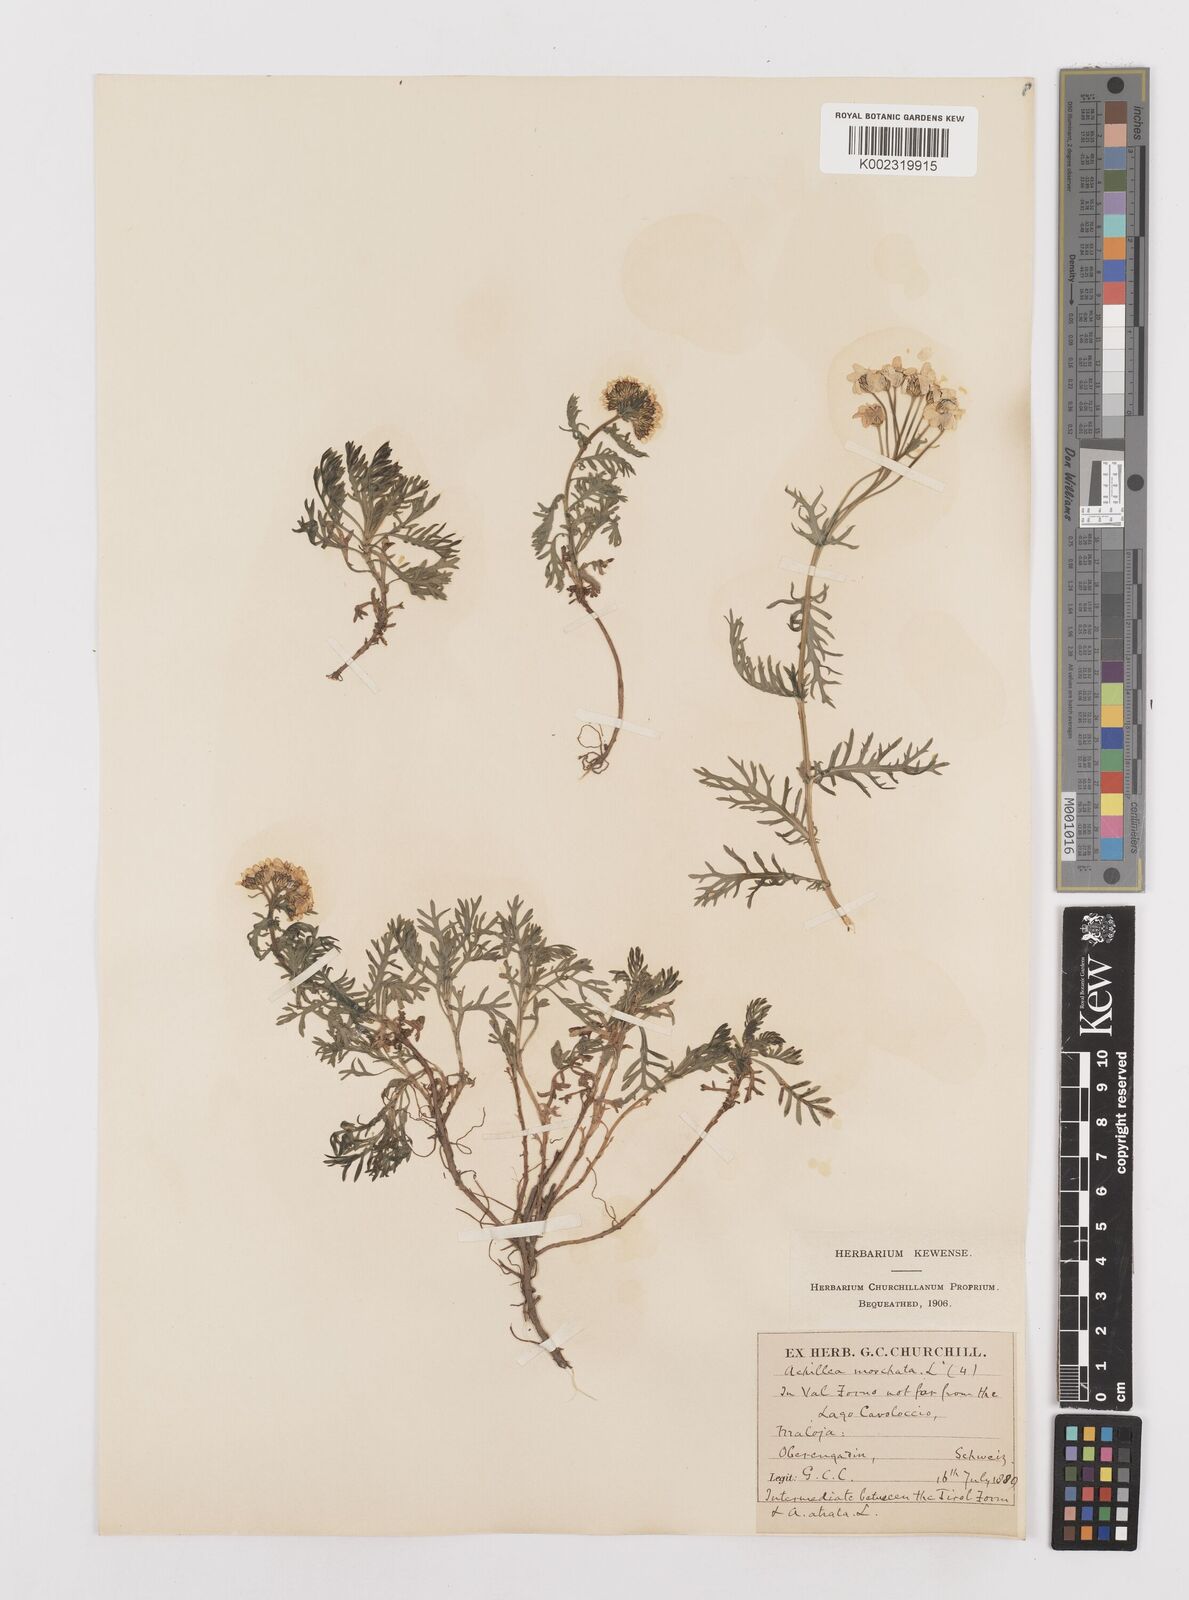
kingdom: Plantae
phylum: Tracheophyta
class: Magnoliopsida
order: Asterales
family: Asteraceae
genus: Achillea
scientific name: Achillea erba-rotta
